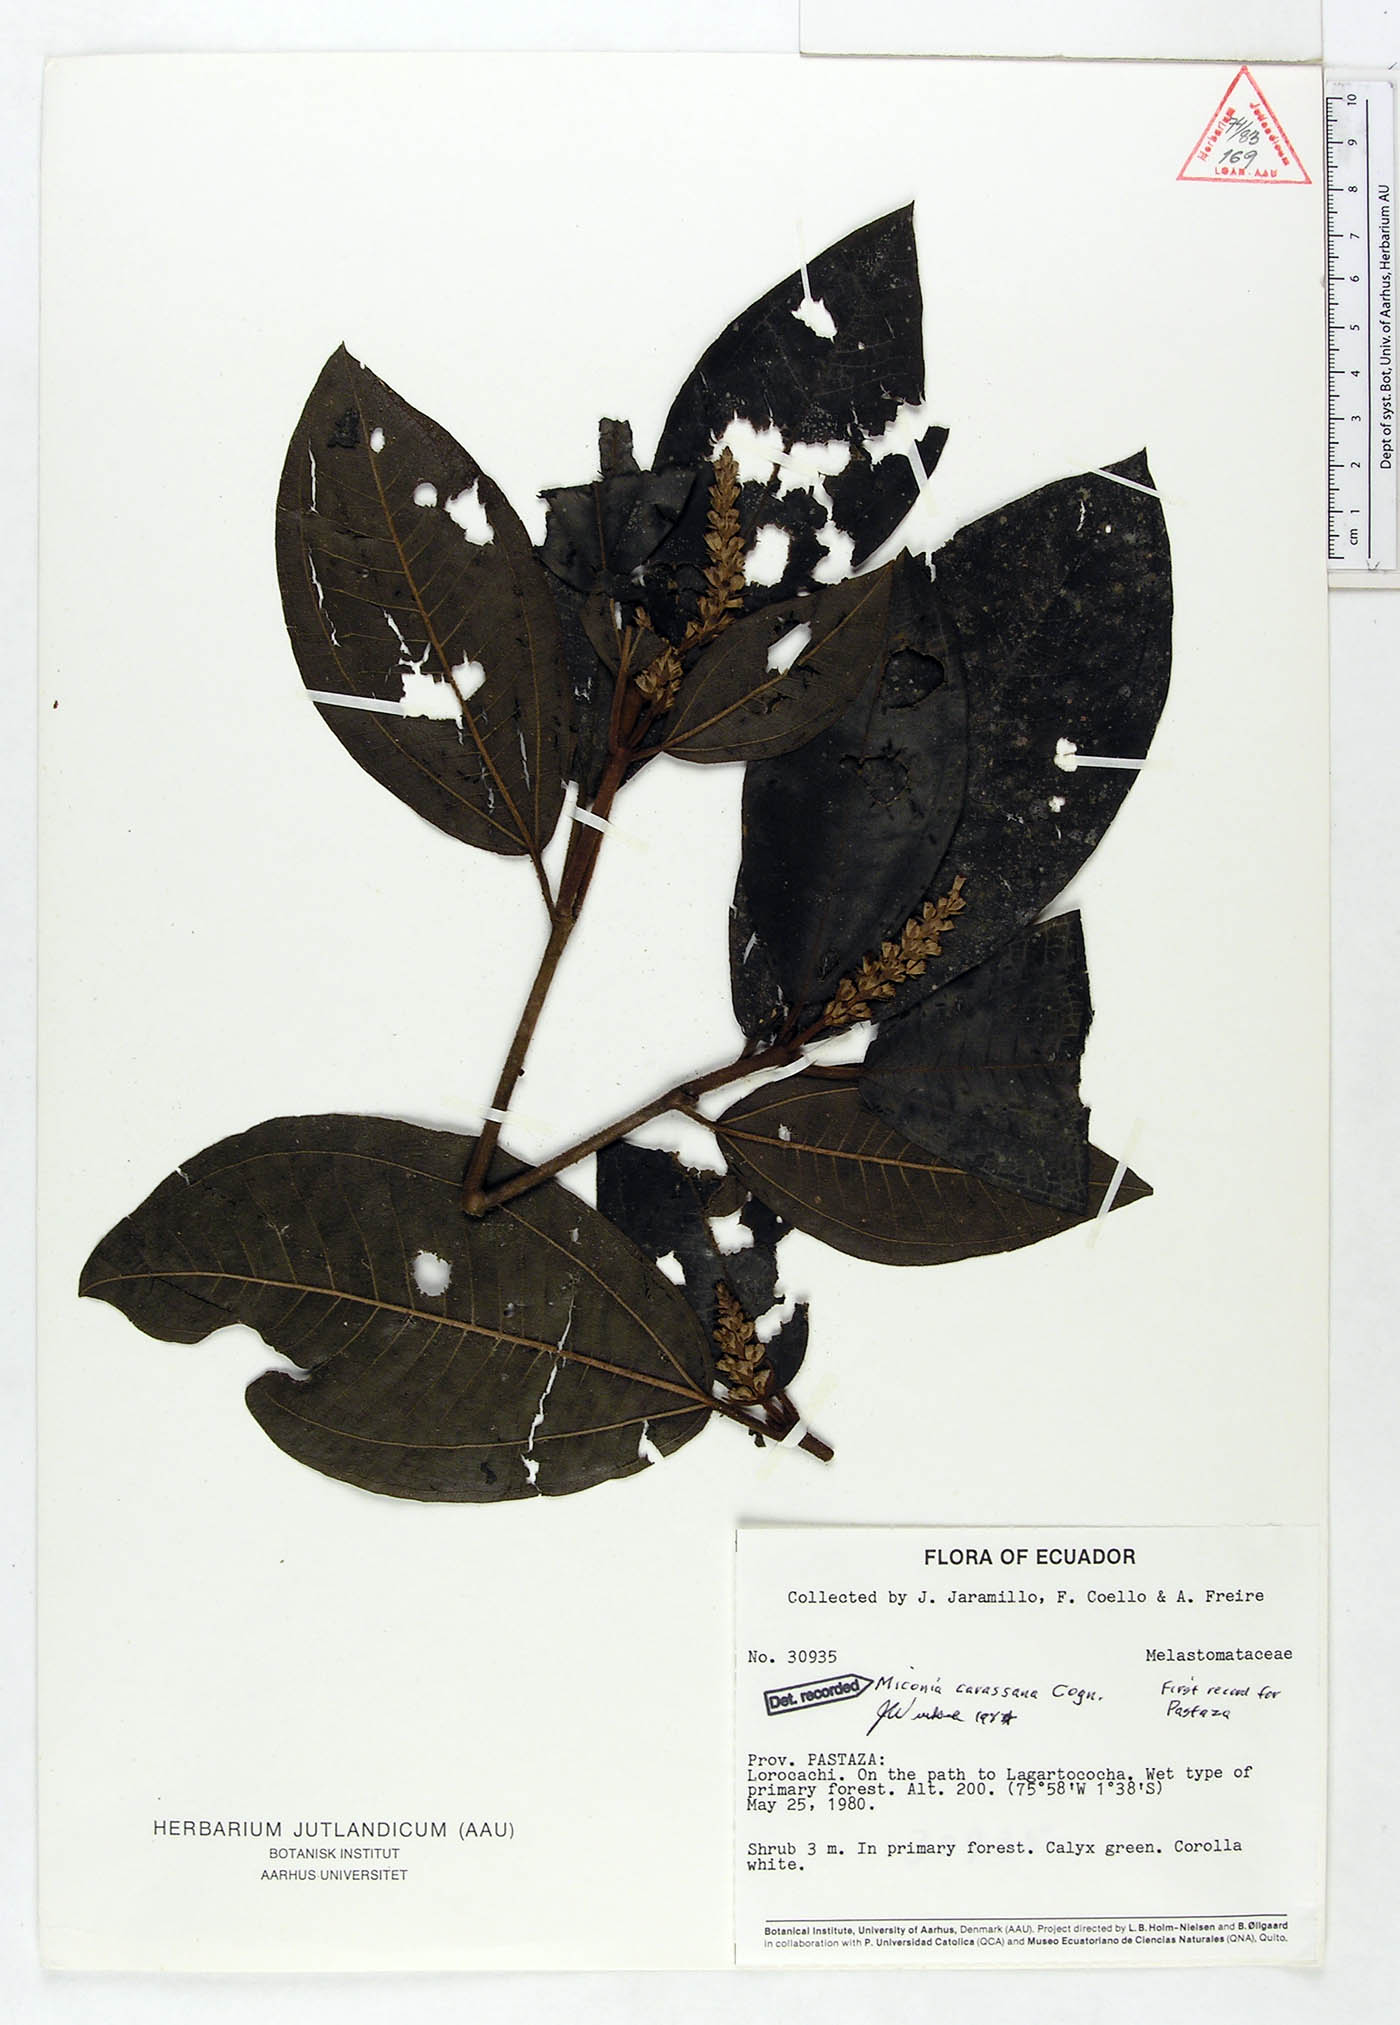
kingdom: Plantae
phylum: Tracheophyta
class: Magnoliopsida
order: Myrtales
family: Melastomataceae
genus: Miconia
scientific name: Miconia carassana
